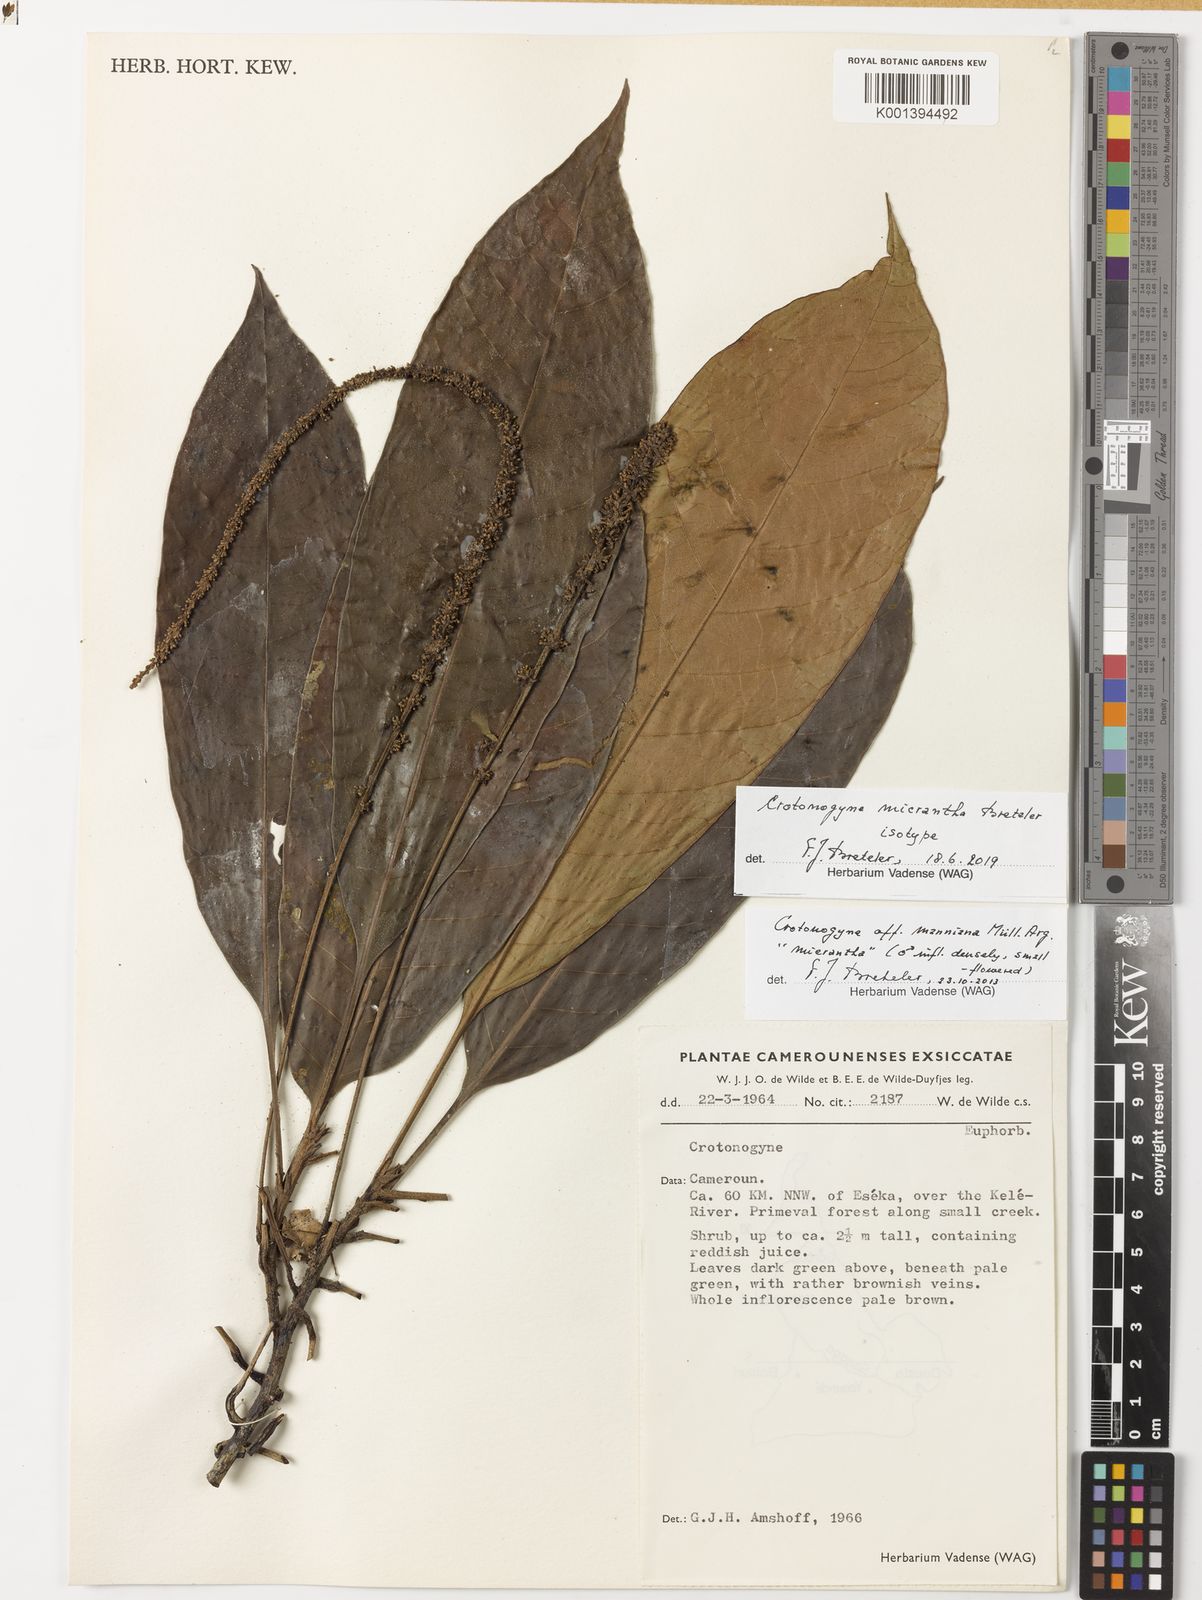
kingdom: Plantae
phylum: Tracheophyta
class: Magnoliopsida
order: Malpighiales
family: Euphorbiaceae
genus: Crotonogyne
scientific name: Crotonogyne micrantha
